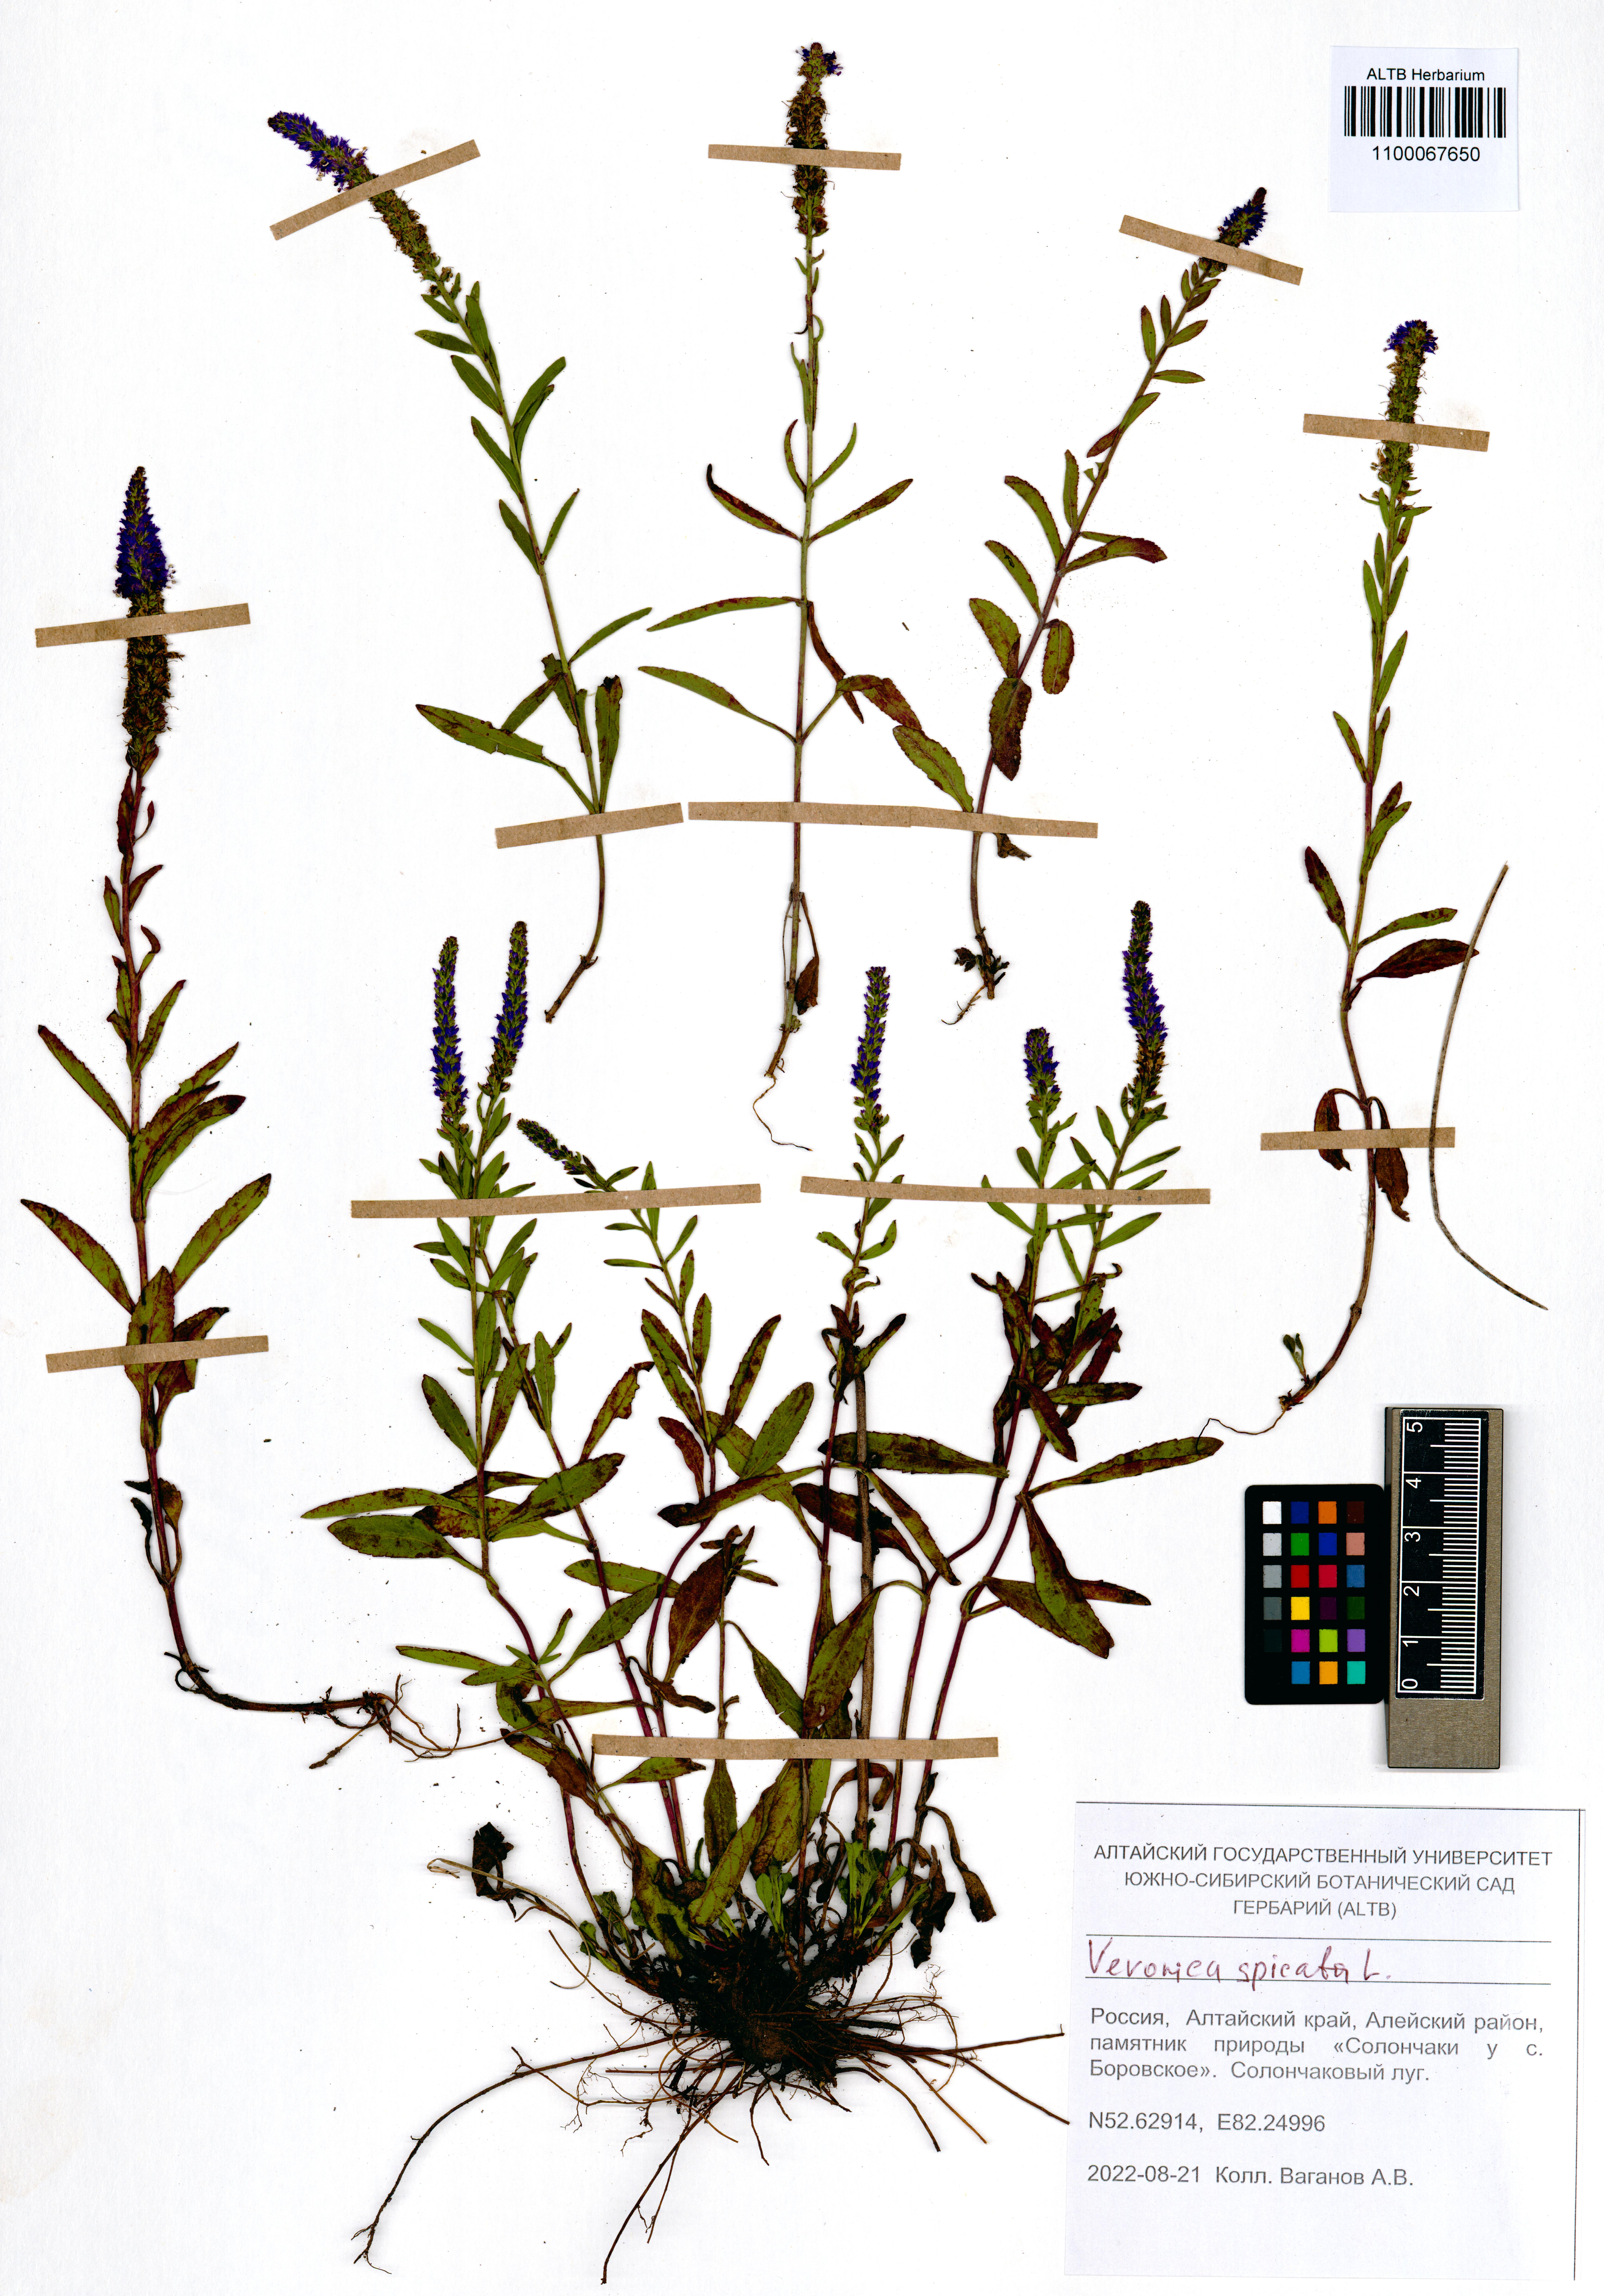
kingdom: Plantae
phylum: Tracheophyta
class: Magnoliopsida
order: Lamiales
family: Plantaginaceae
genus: Veronica
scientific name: Veronica spicata
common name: Spiked speedwell
